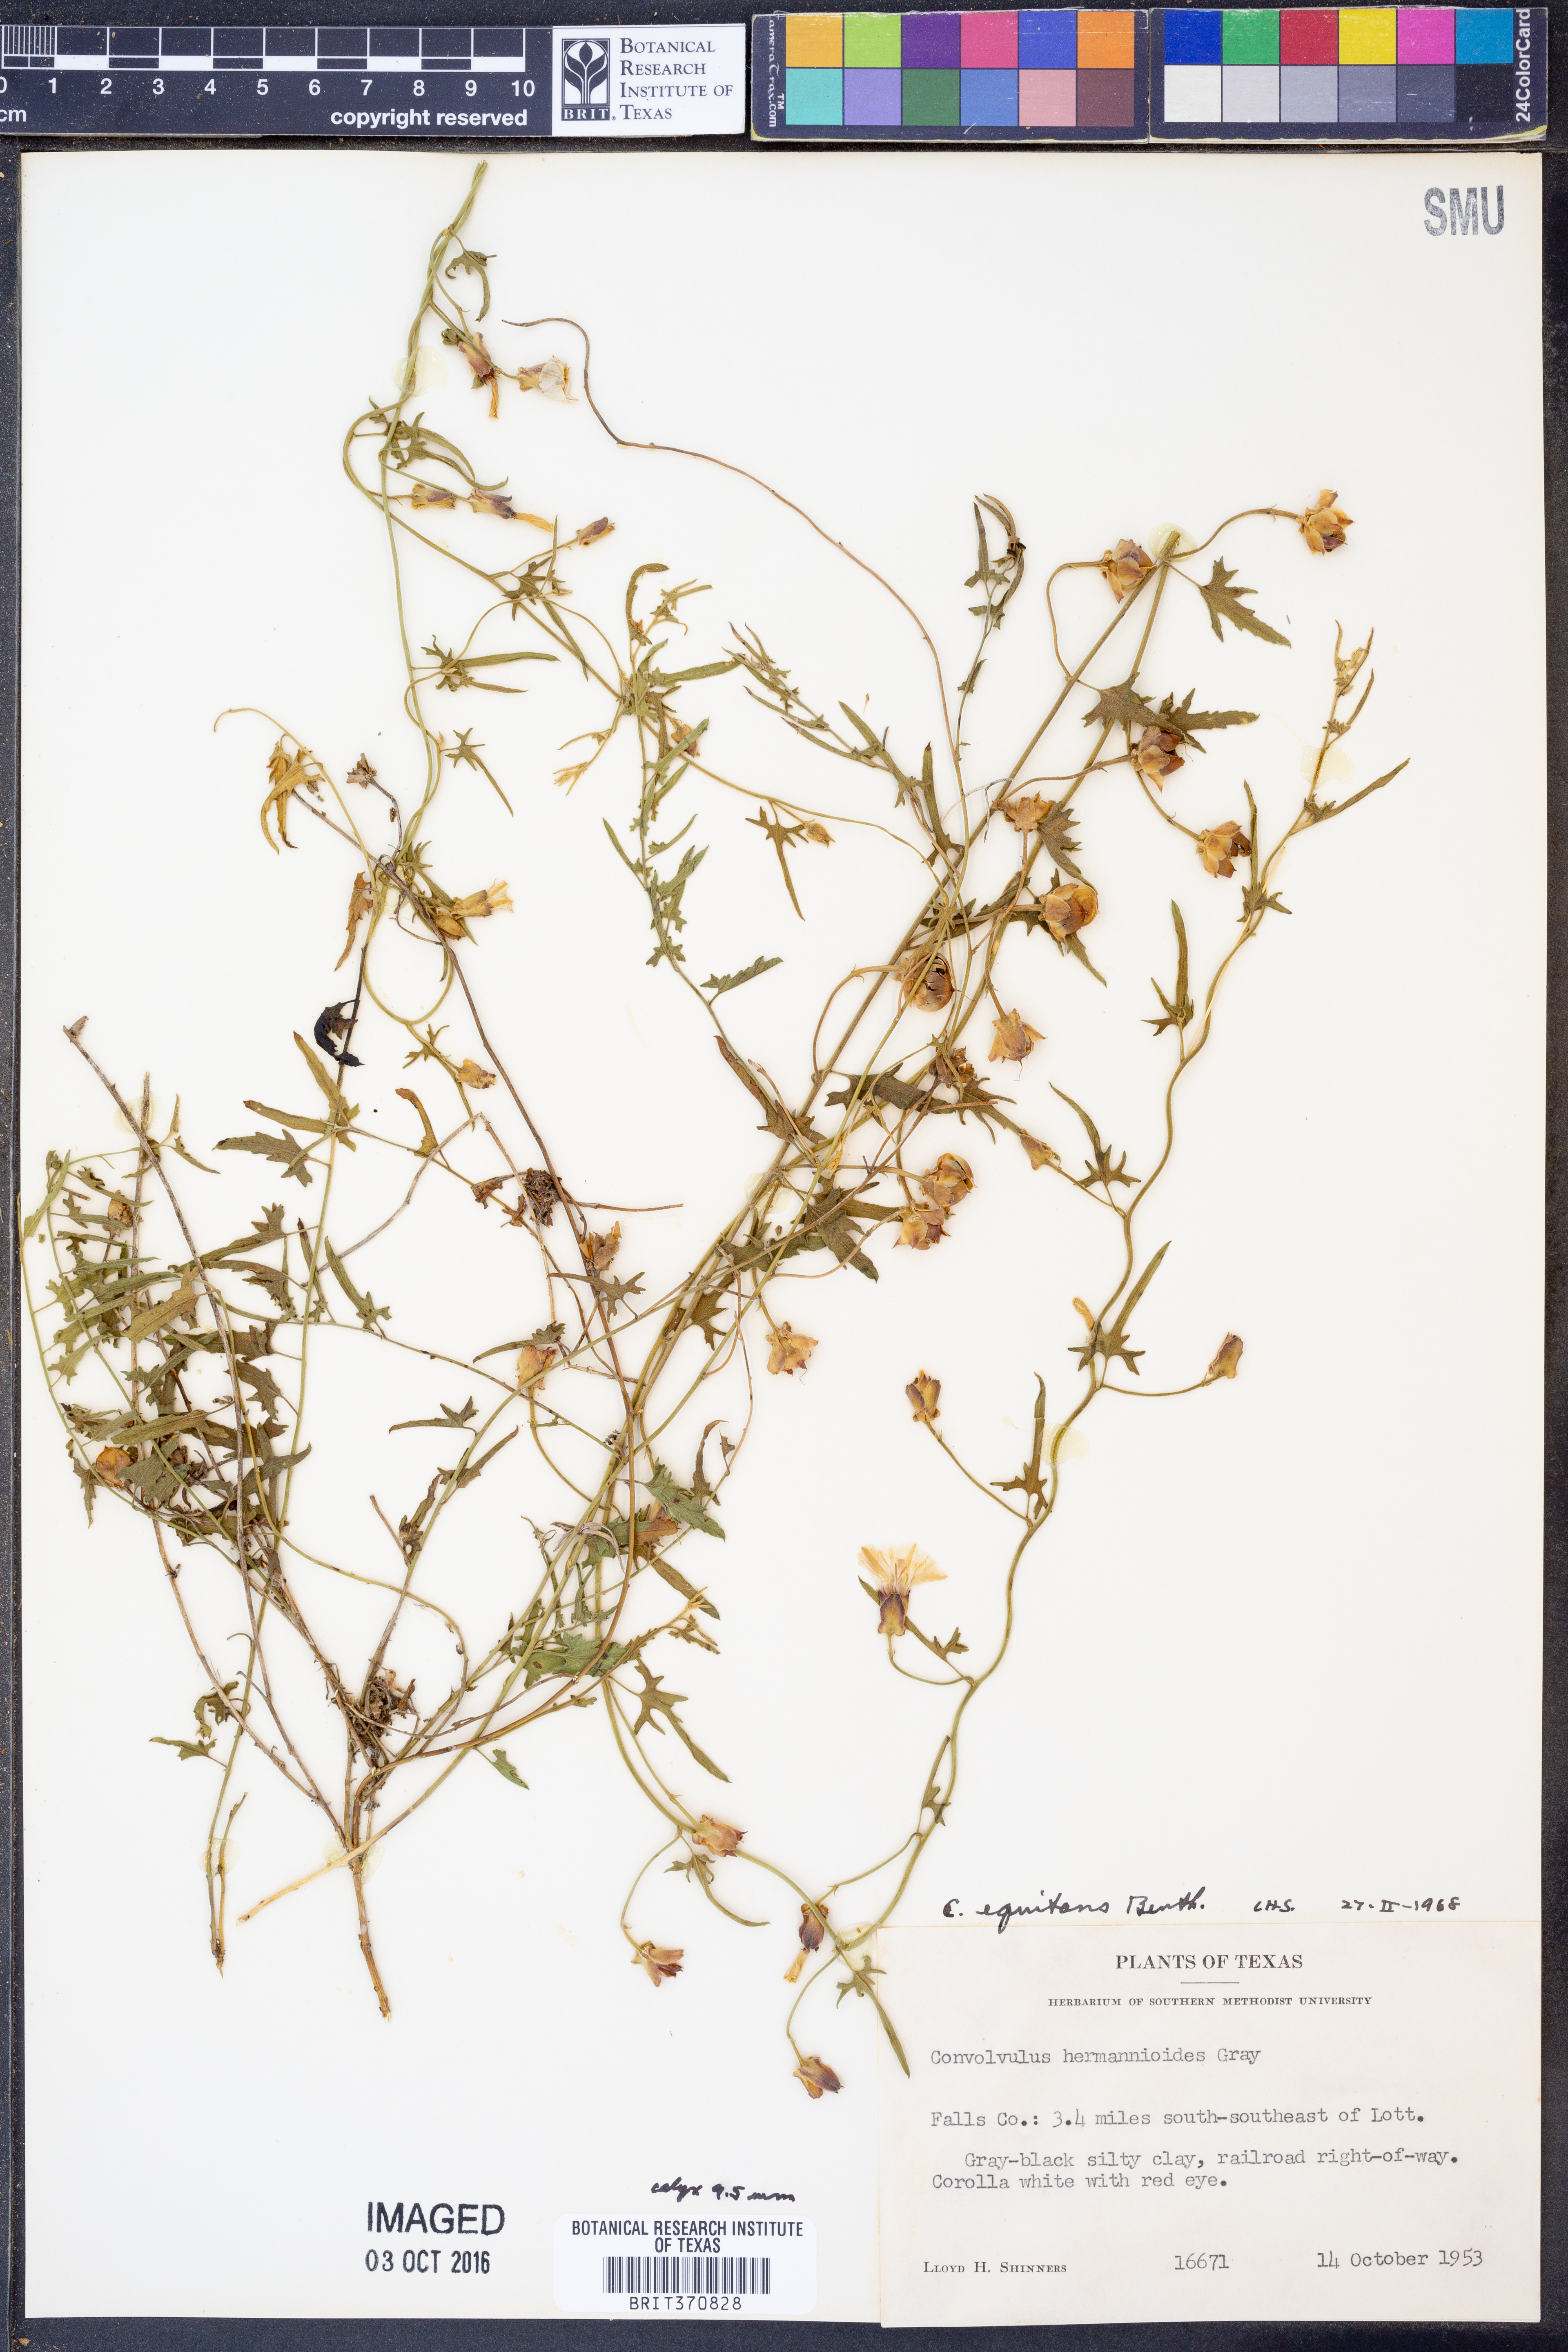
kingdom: Plantae
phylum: Tracheophyta
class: Magnoliopsida
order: Solanales
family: Convolvulaceae
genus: Convolvulus
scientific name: Convolvulus equitans
